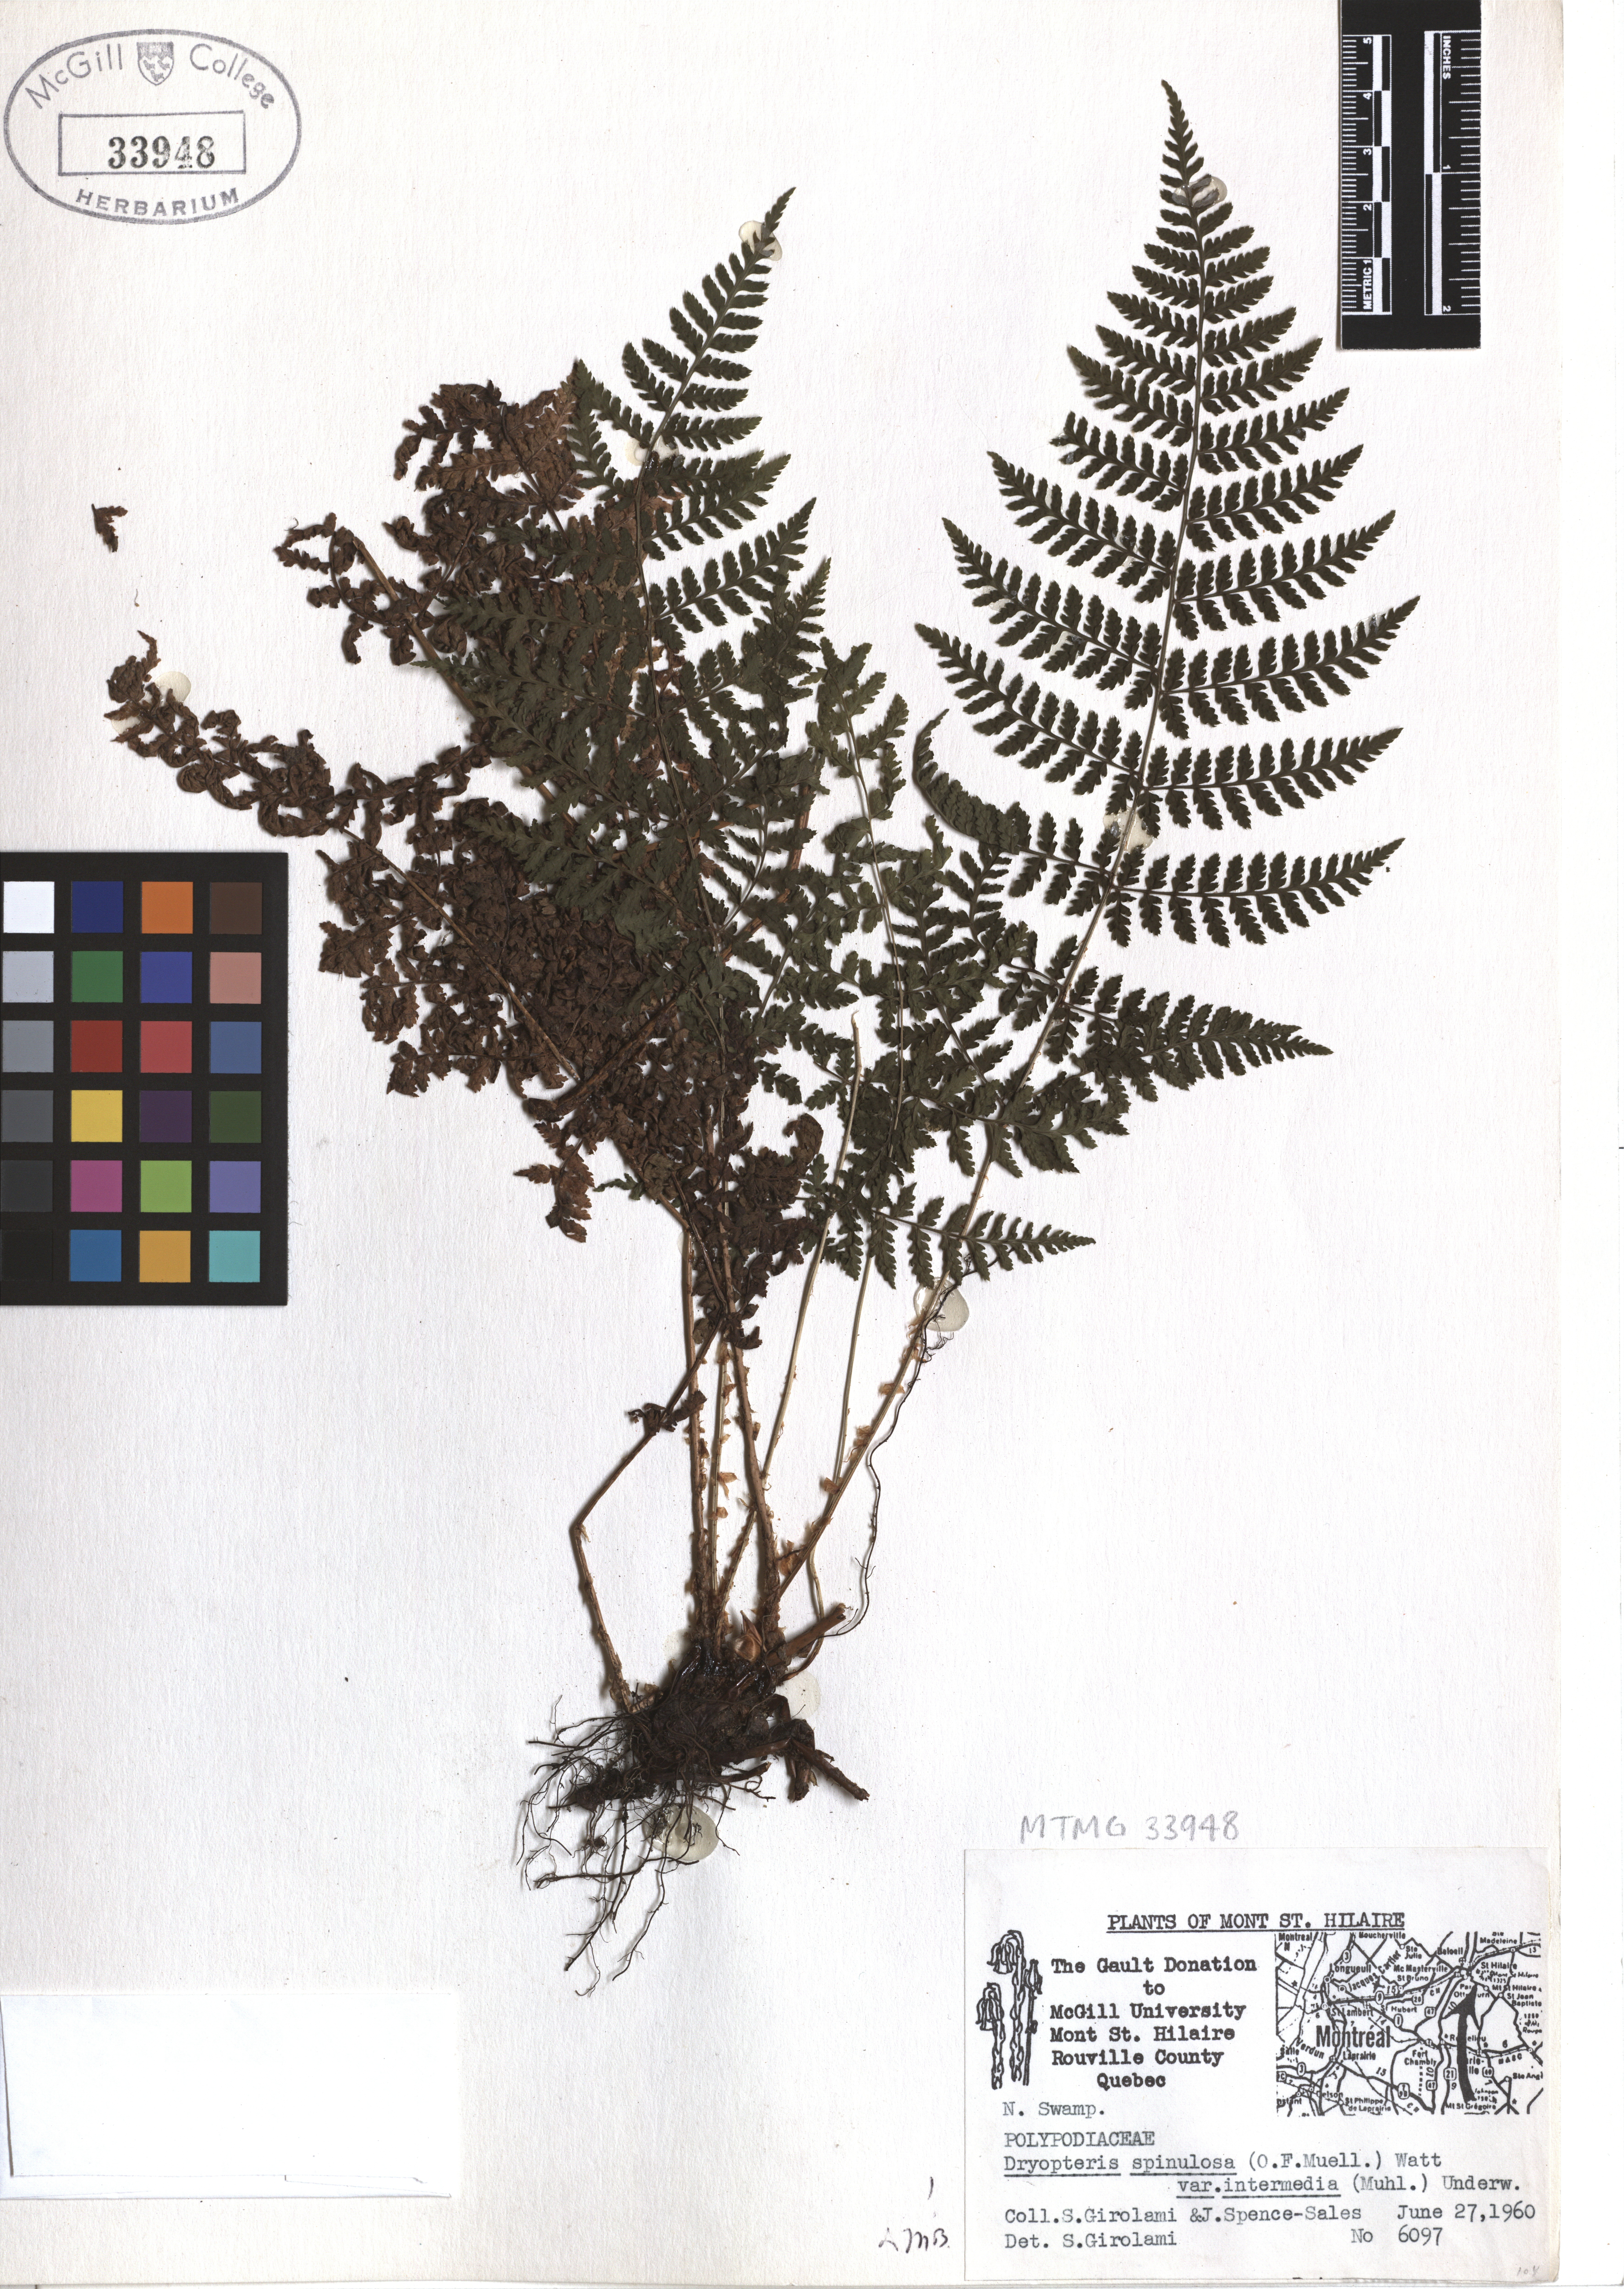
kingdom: Plantae
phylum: Tracheophyta
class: Polypodiopsida
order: Polypodiales
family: Dryopteridaceae
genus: Dryopteris
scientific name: Dryopteris carthusiana
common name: Narrow buckler-fern
